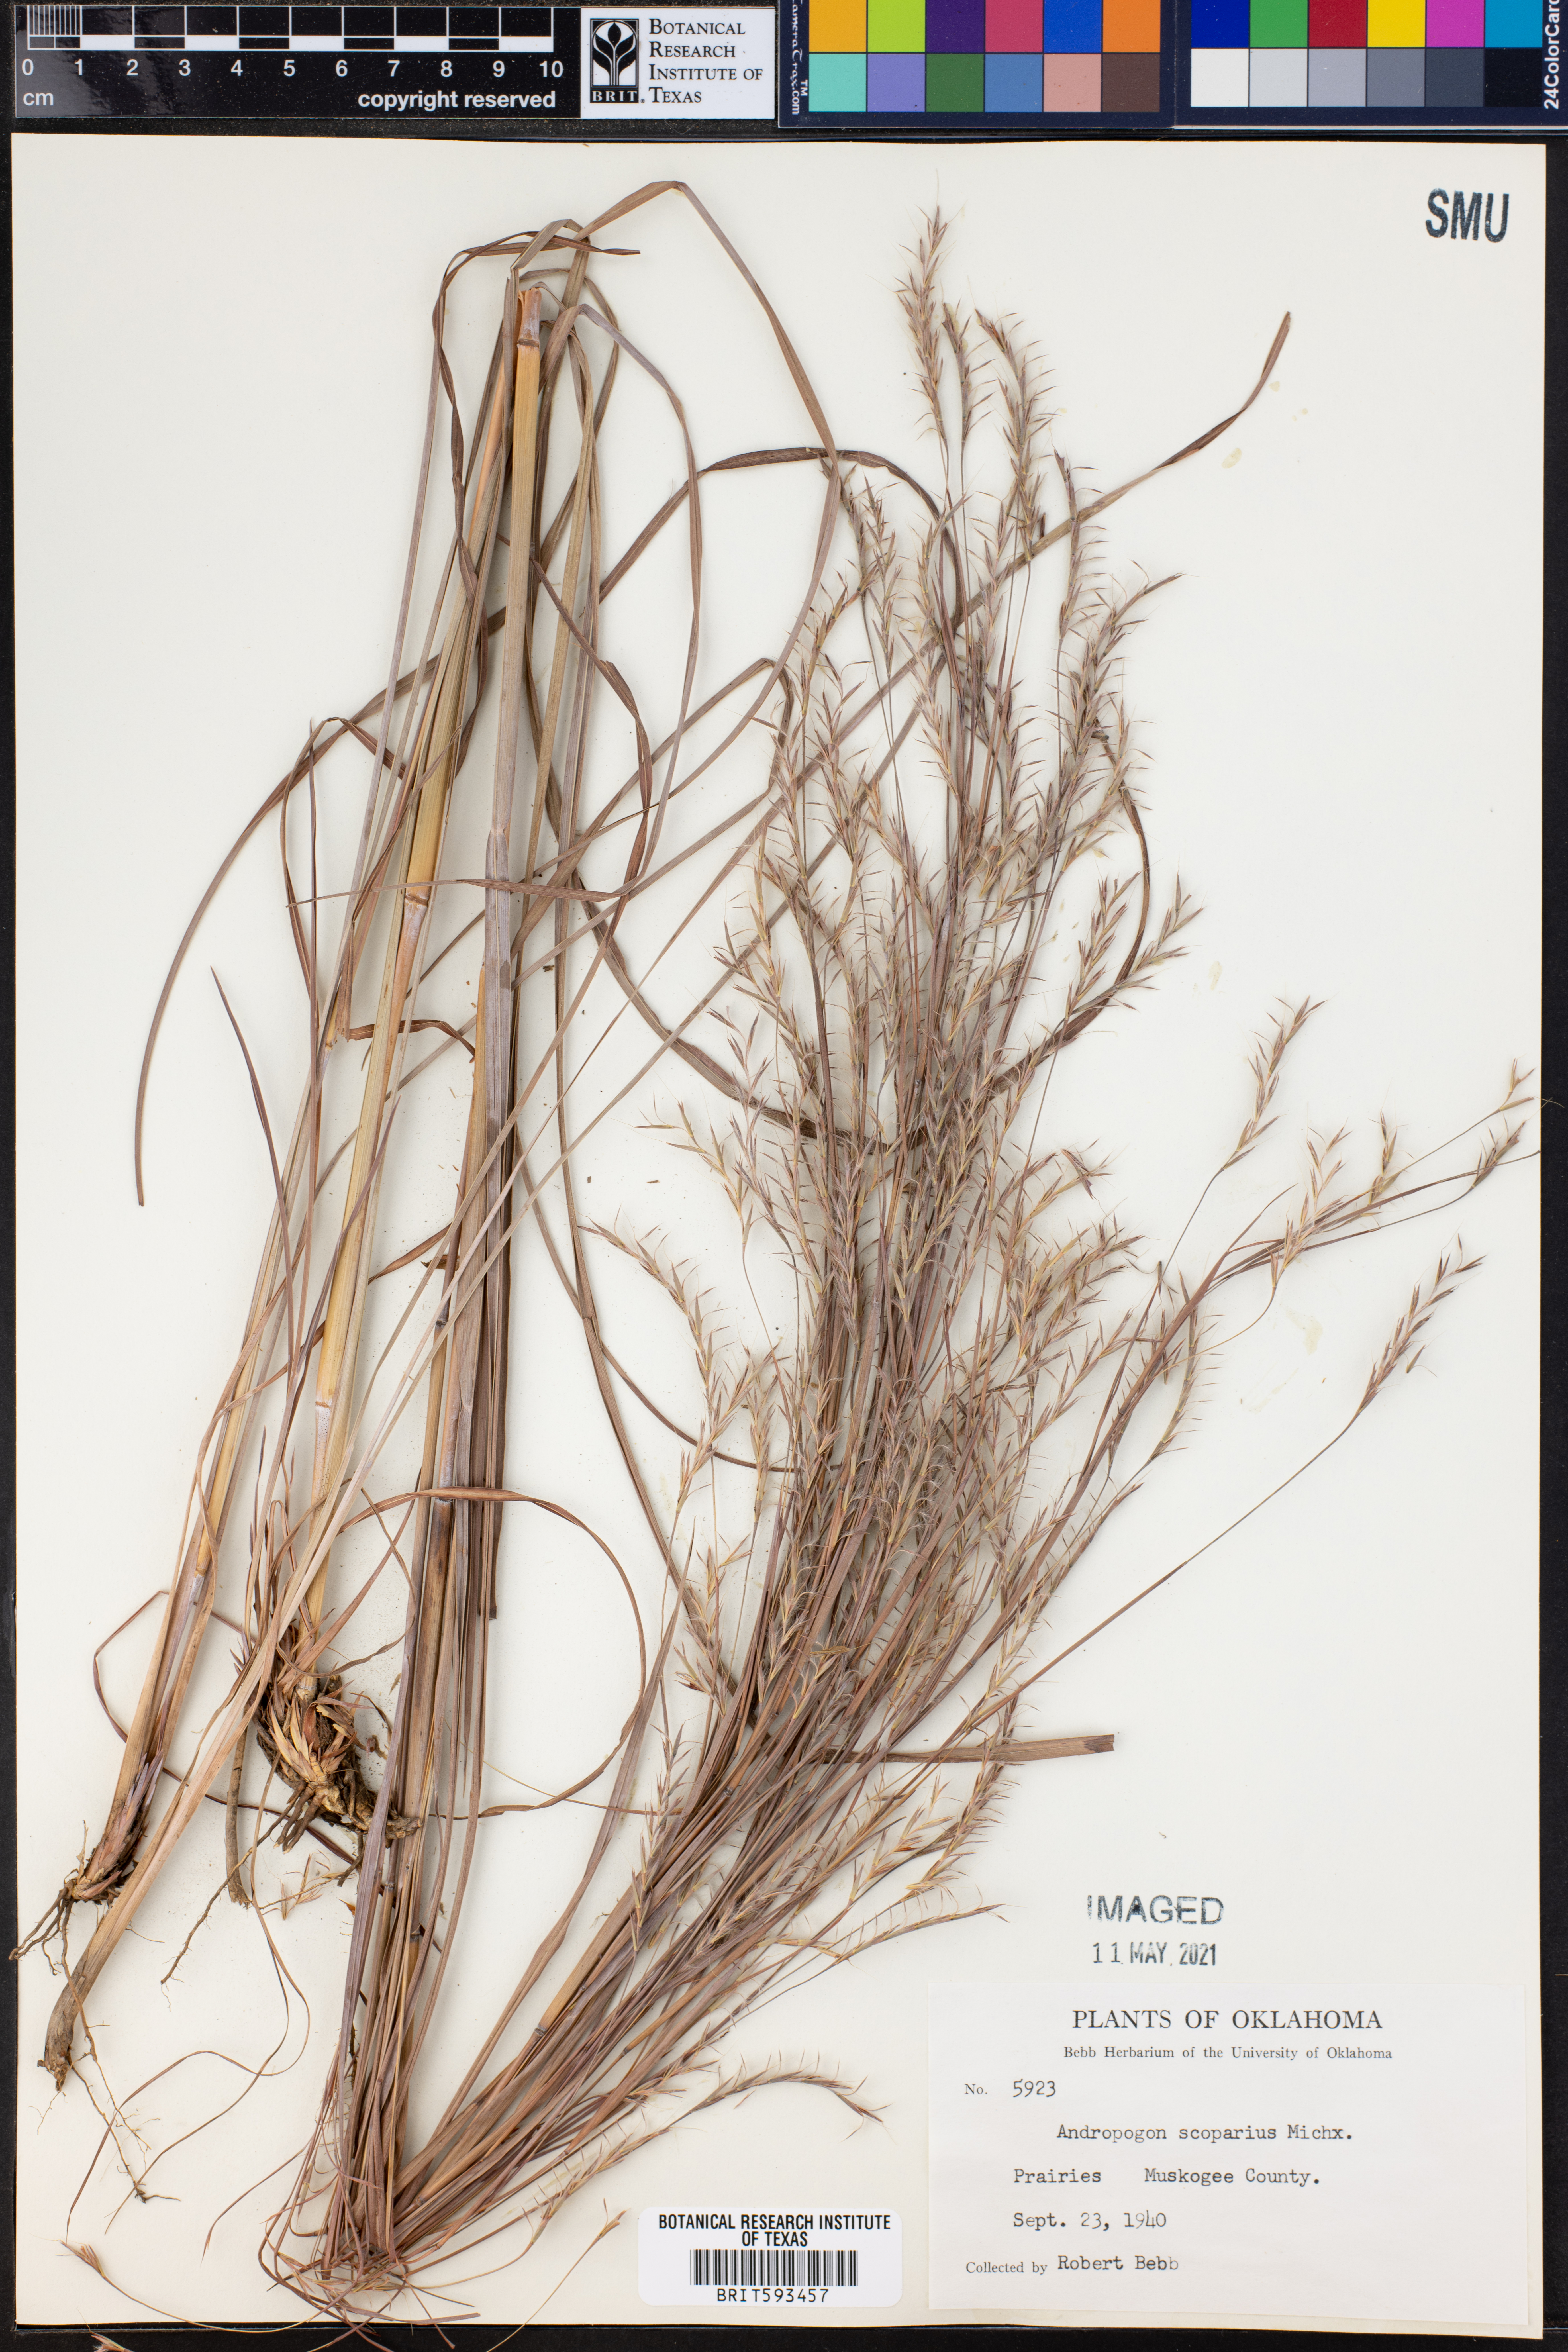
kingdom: Plantae
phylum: Tracheophyta
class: Liliopsida
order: Poales
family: Poaceae
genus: Schizachyrium
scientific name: Schizachyrium scoparium
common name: Little bluestem
